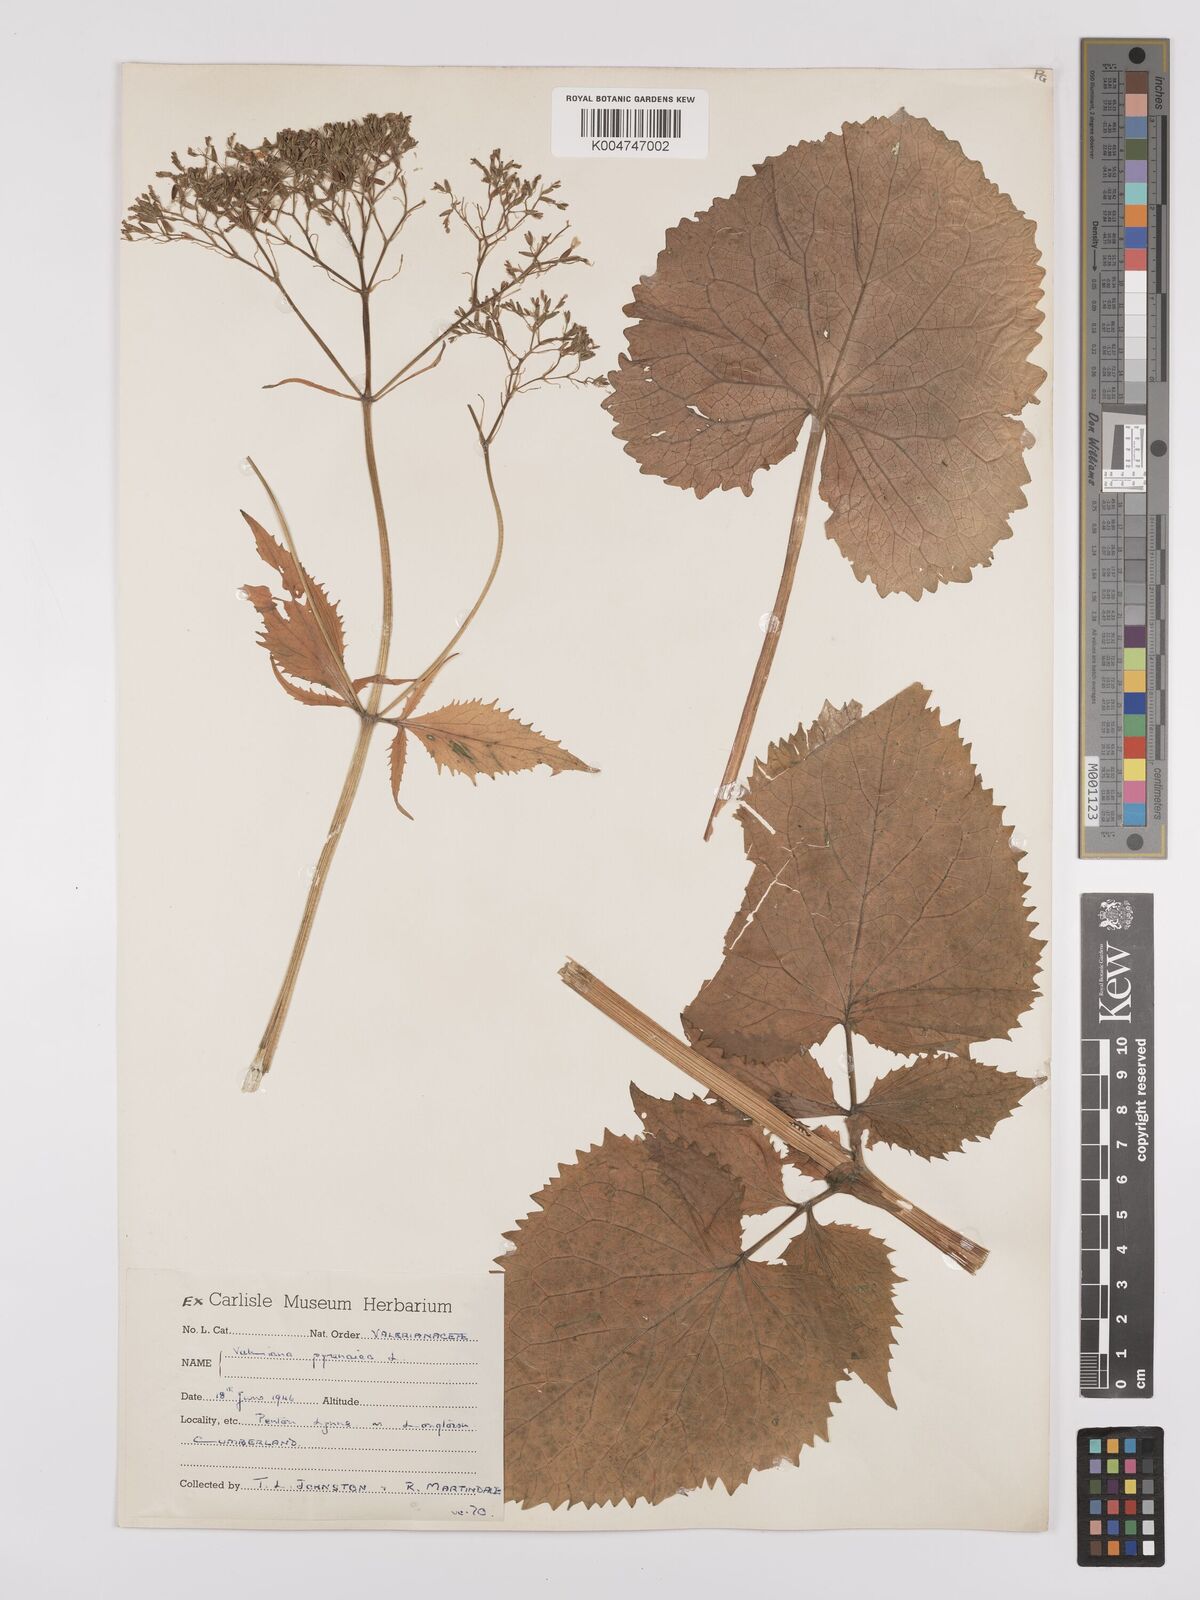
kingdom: Plantae
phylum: Tracheophyta
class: Magnoliopsida
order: Dipsacales
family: Caprifoliaceae
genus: Valeriana
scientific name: Valeriana pyrenaica
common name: Pyrenean valerian
